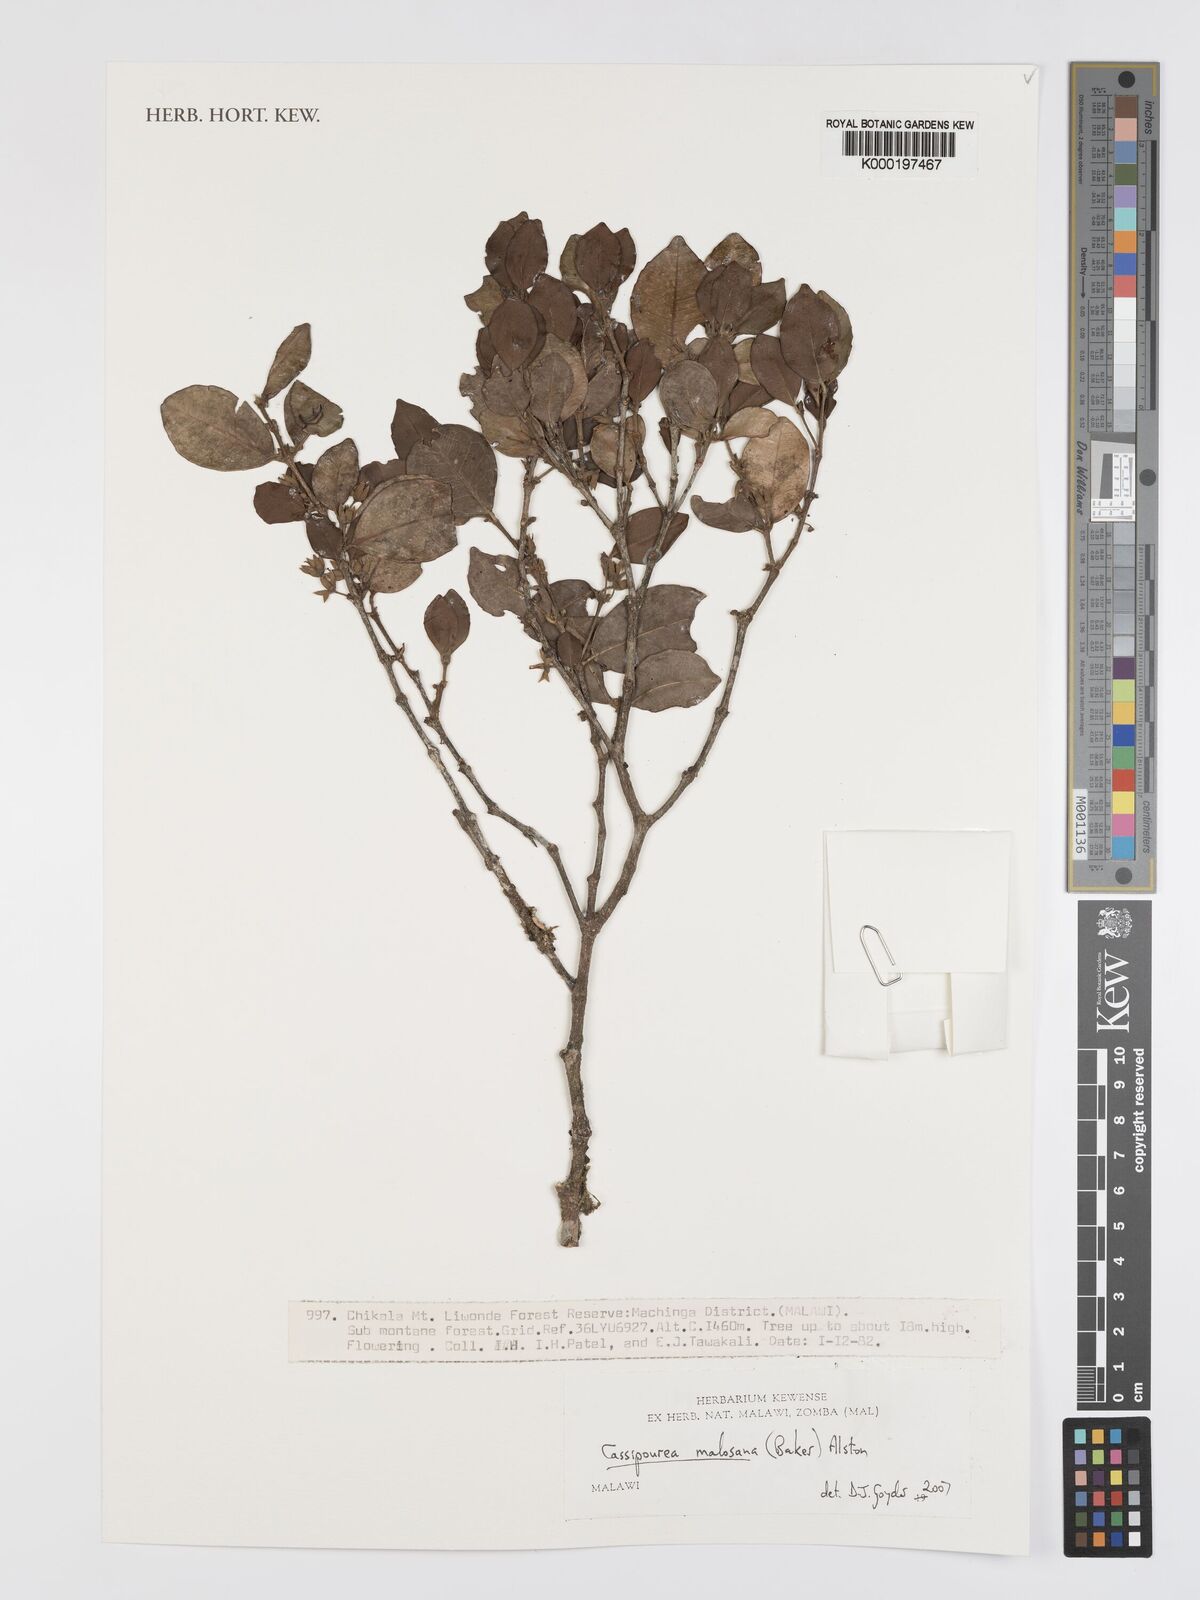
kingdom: Plantae
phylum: Tracheophyta
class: Magnoliopsida
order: Malpighiales
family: Rhizophoraceae
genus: Cassipourea
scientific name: Cassipourea malosana
